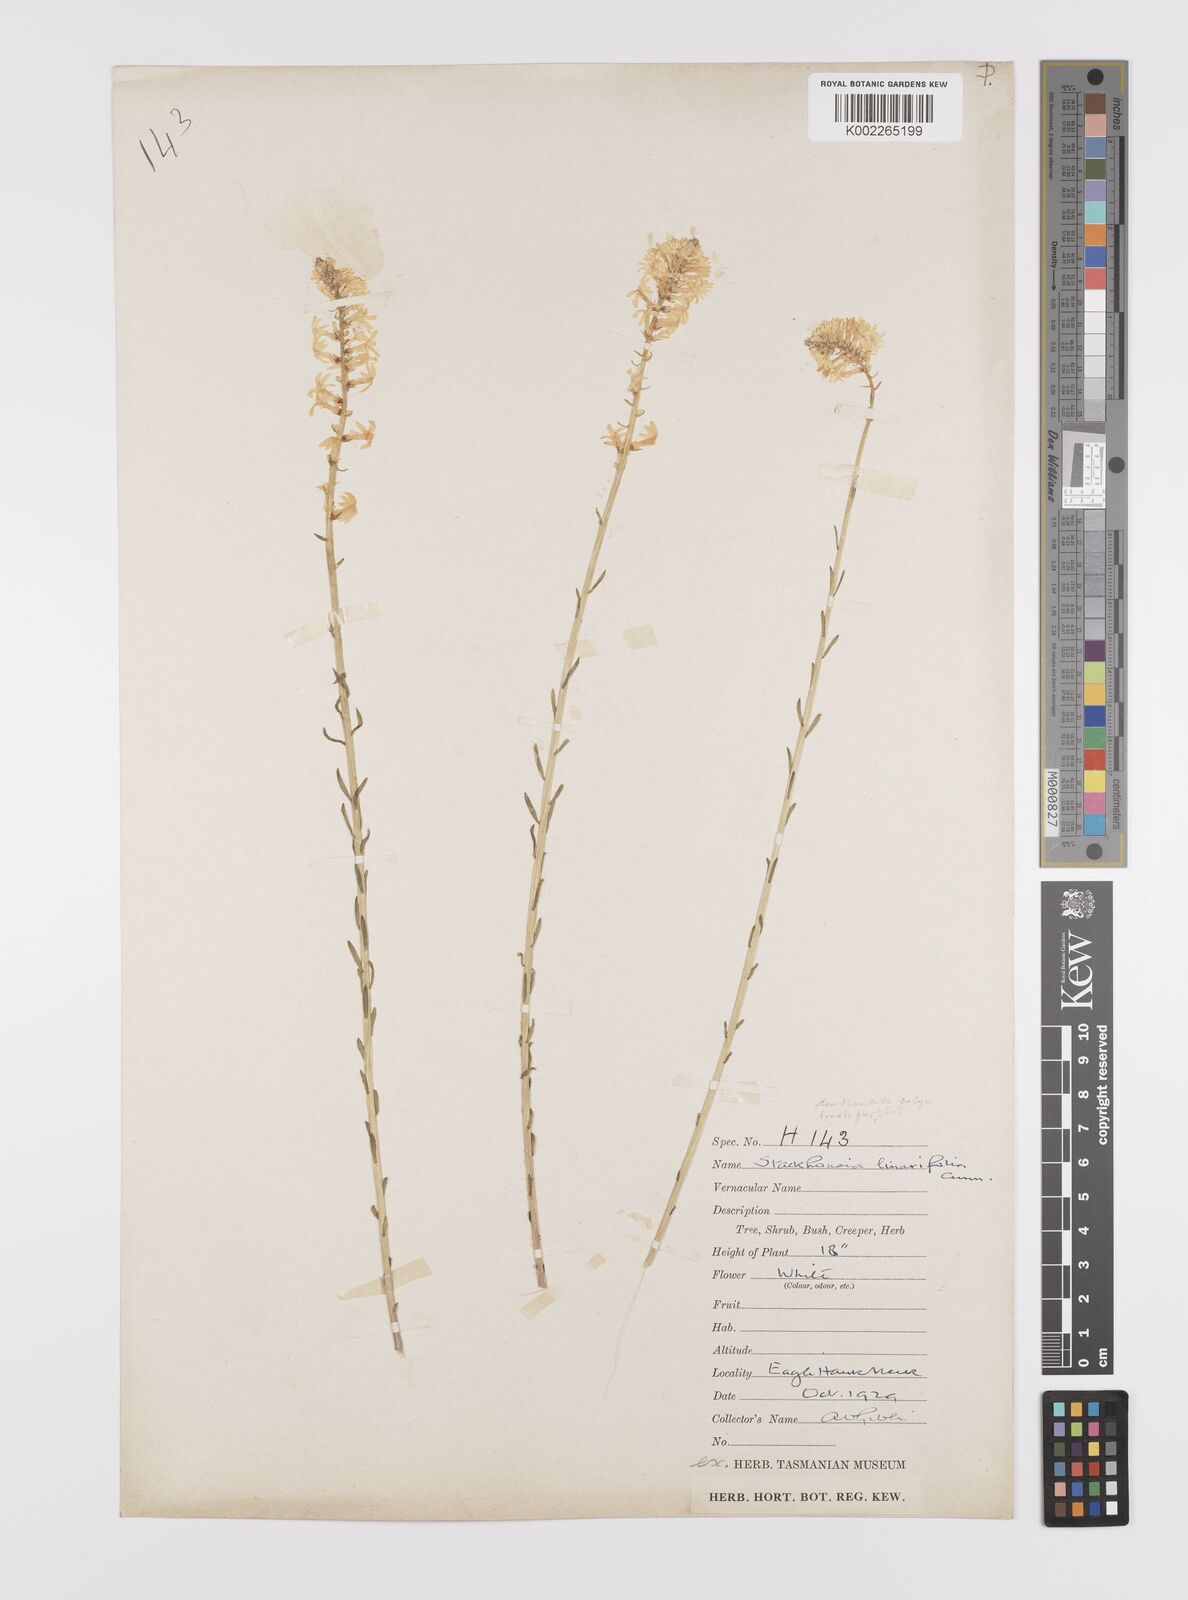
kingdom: Plantae
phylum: Tracheophyta
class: Magnoliopsida
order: Celastrales
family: Celastraceae
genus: Stackhousia
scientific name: Stackhousia monogyna
